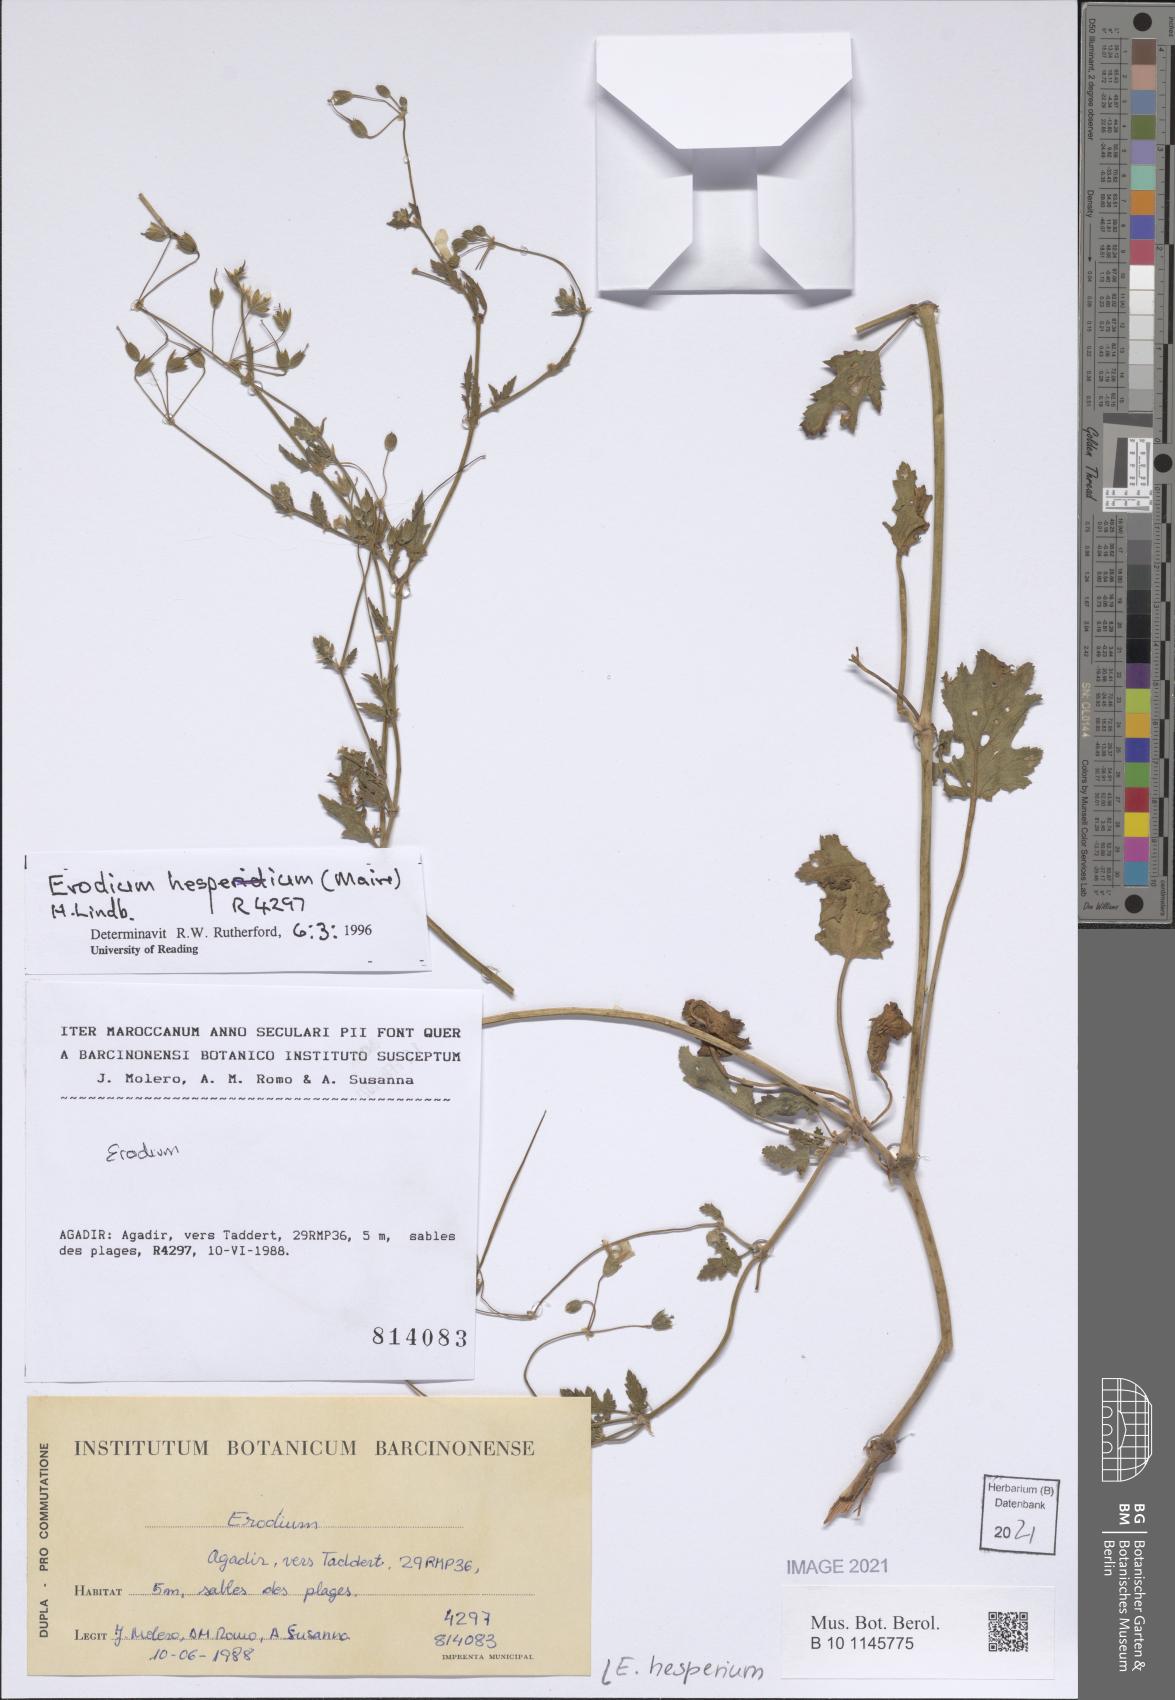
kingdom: Plantae
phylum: Tracheophyta
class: Magnoliopsida
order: Geraniales
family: Geraniaceae
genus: Erodium
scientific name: Erodium hesperium
